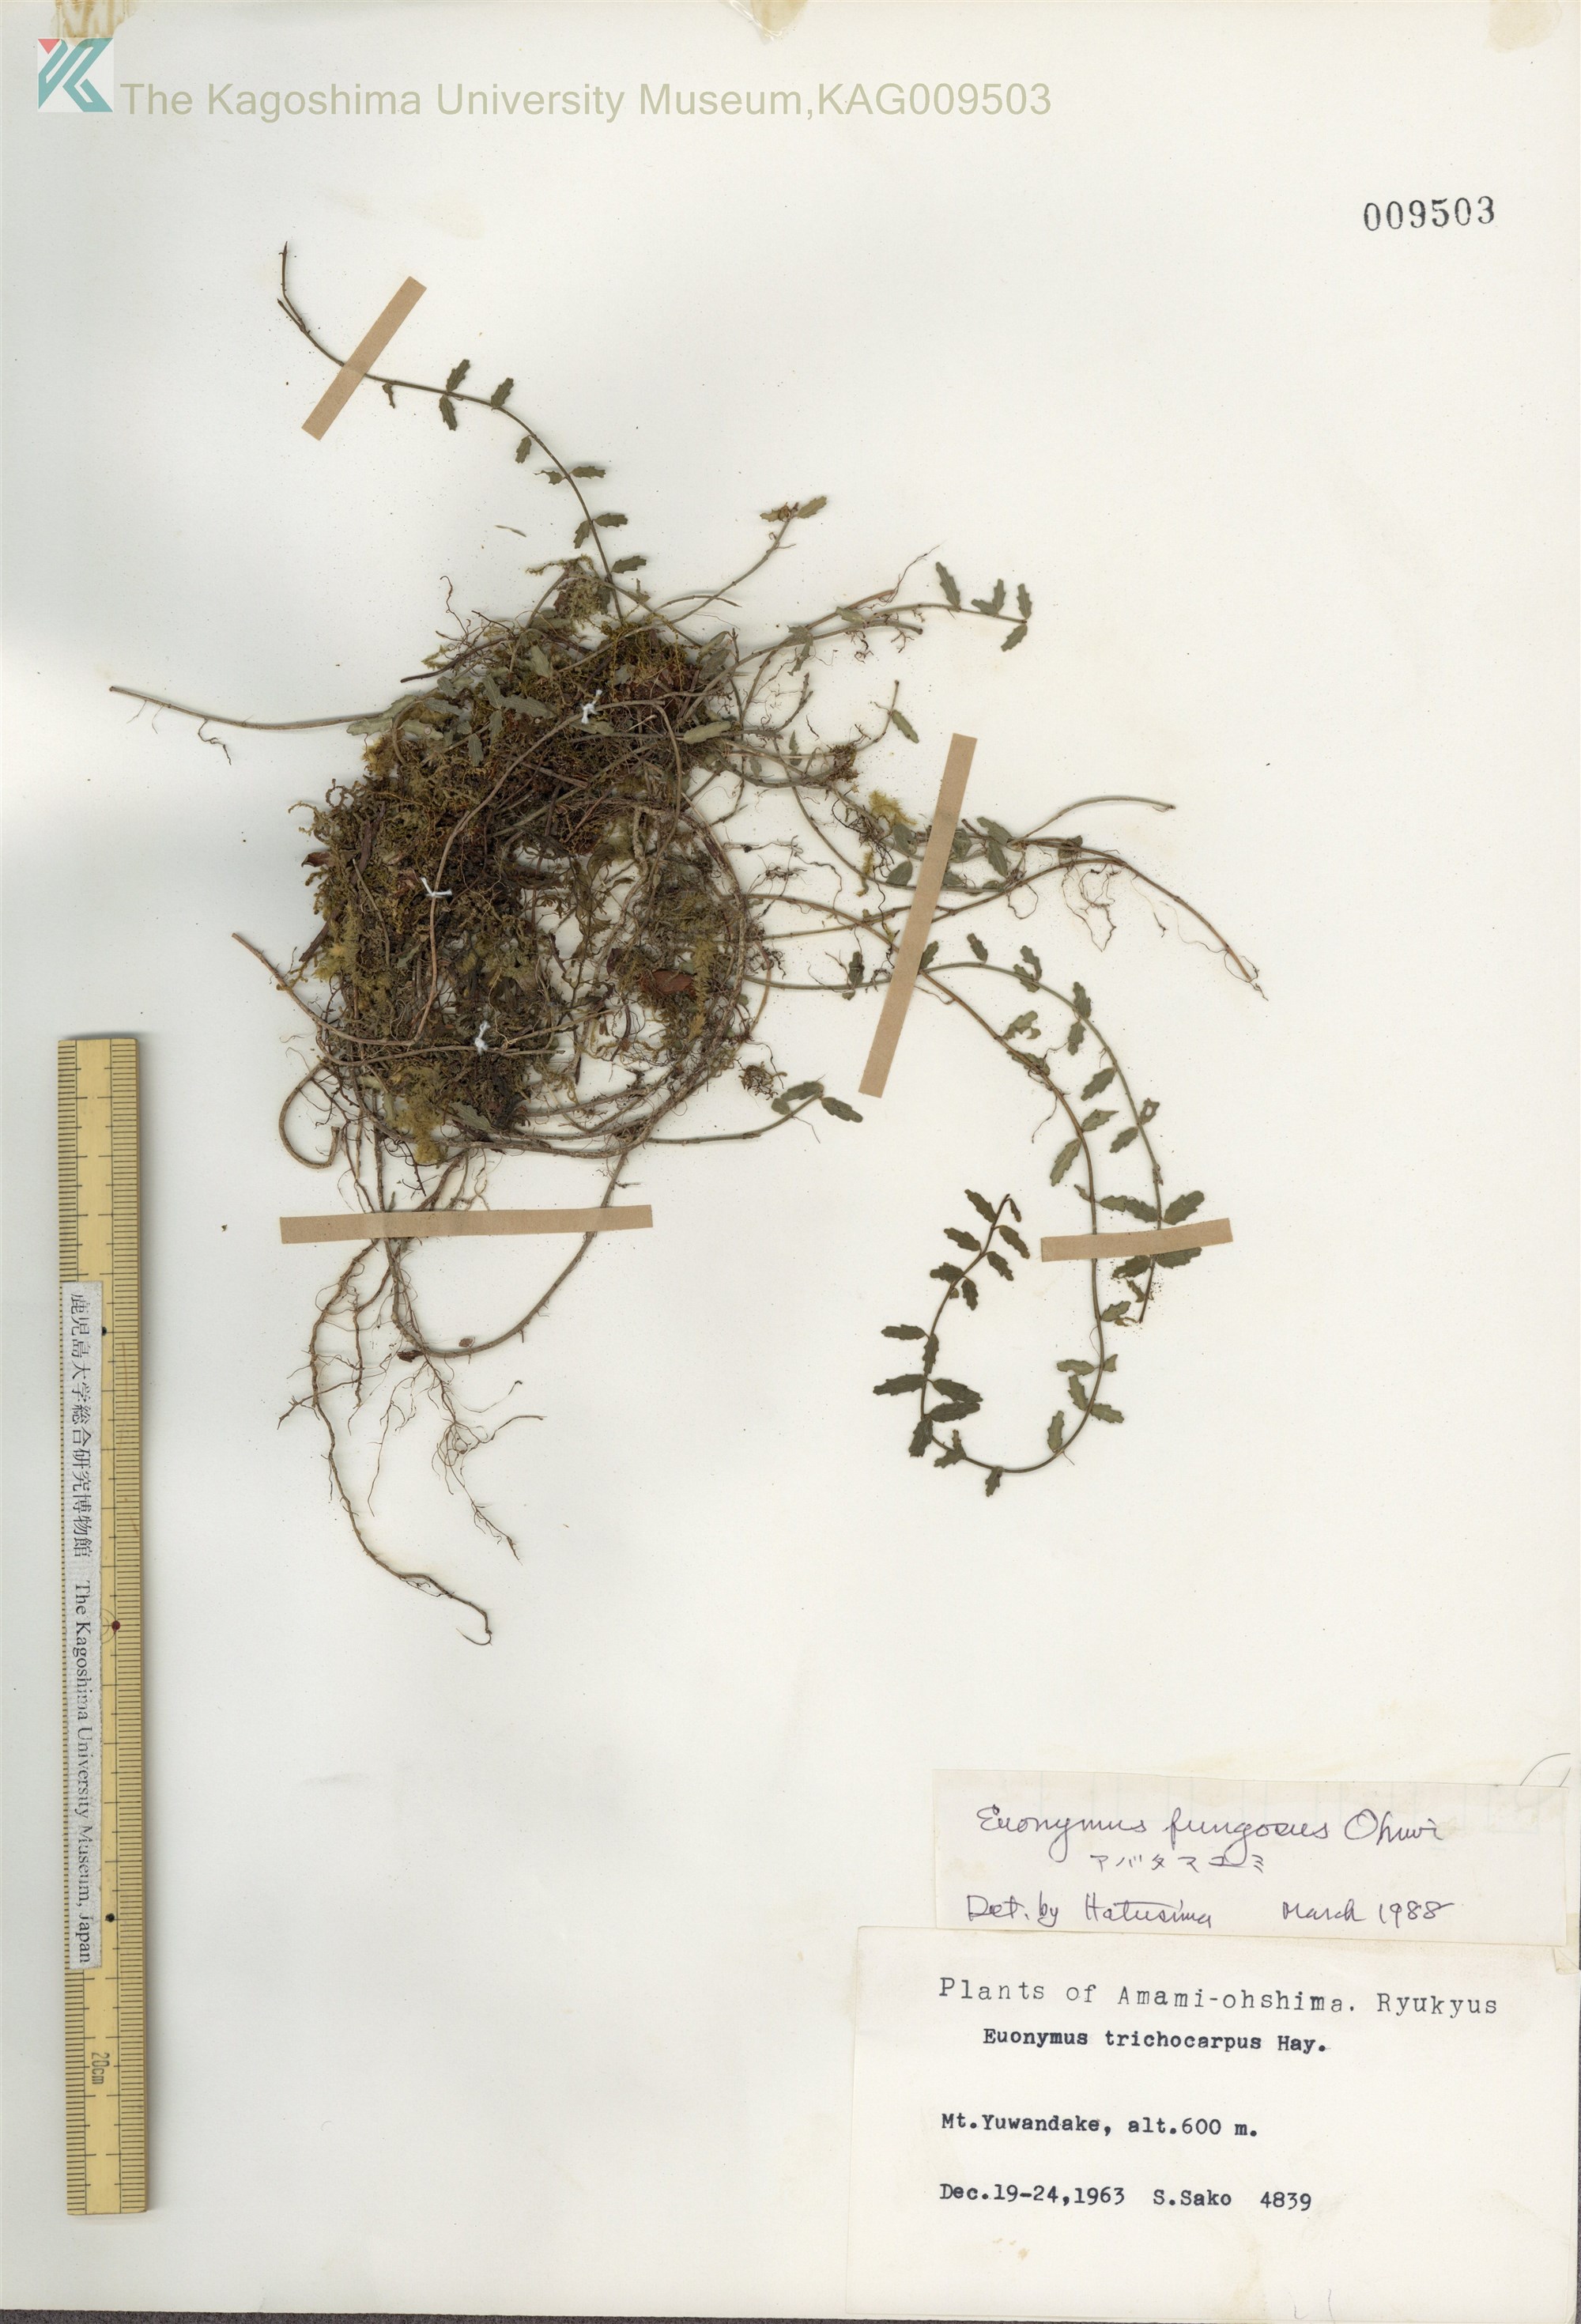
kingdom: Plantae
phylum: Tracheophyta
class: Magnoliopsida
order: Celastrales
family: Celastraceae
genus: Euonymus
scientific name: Euonymus echinatus
